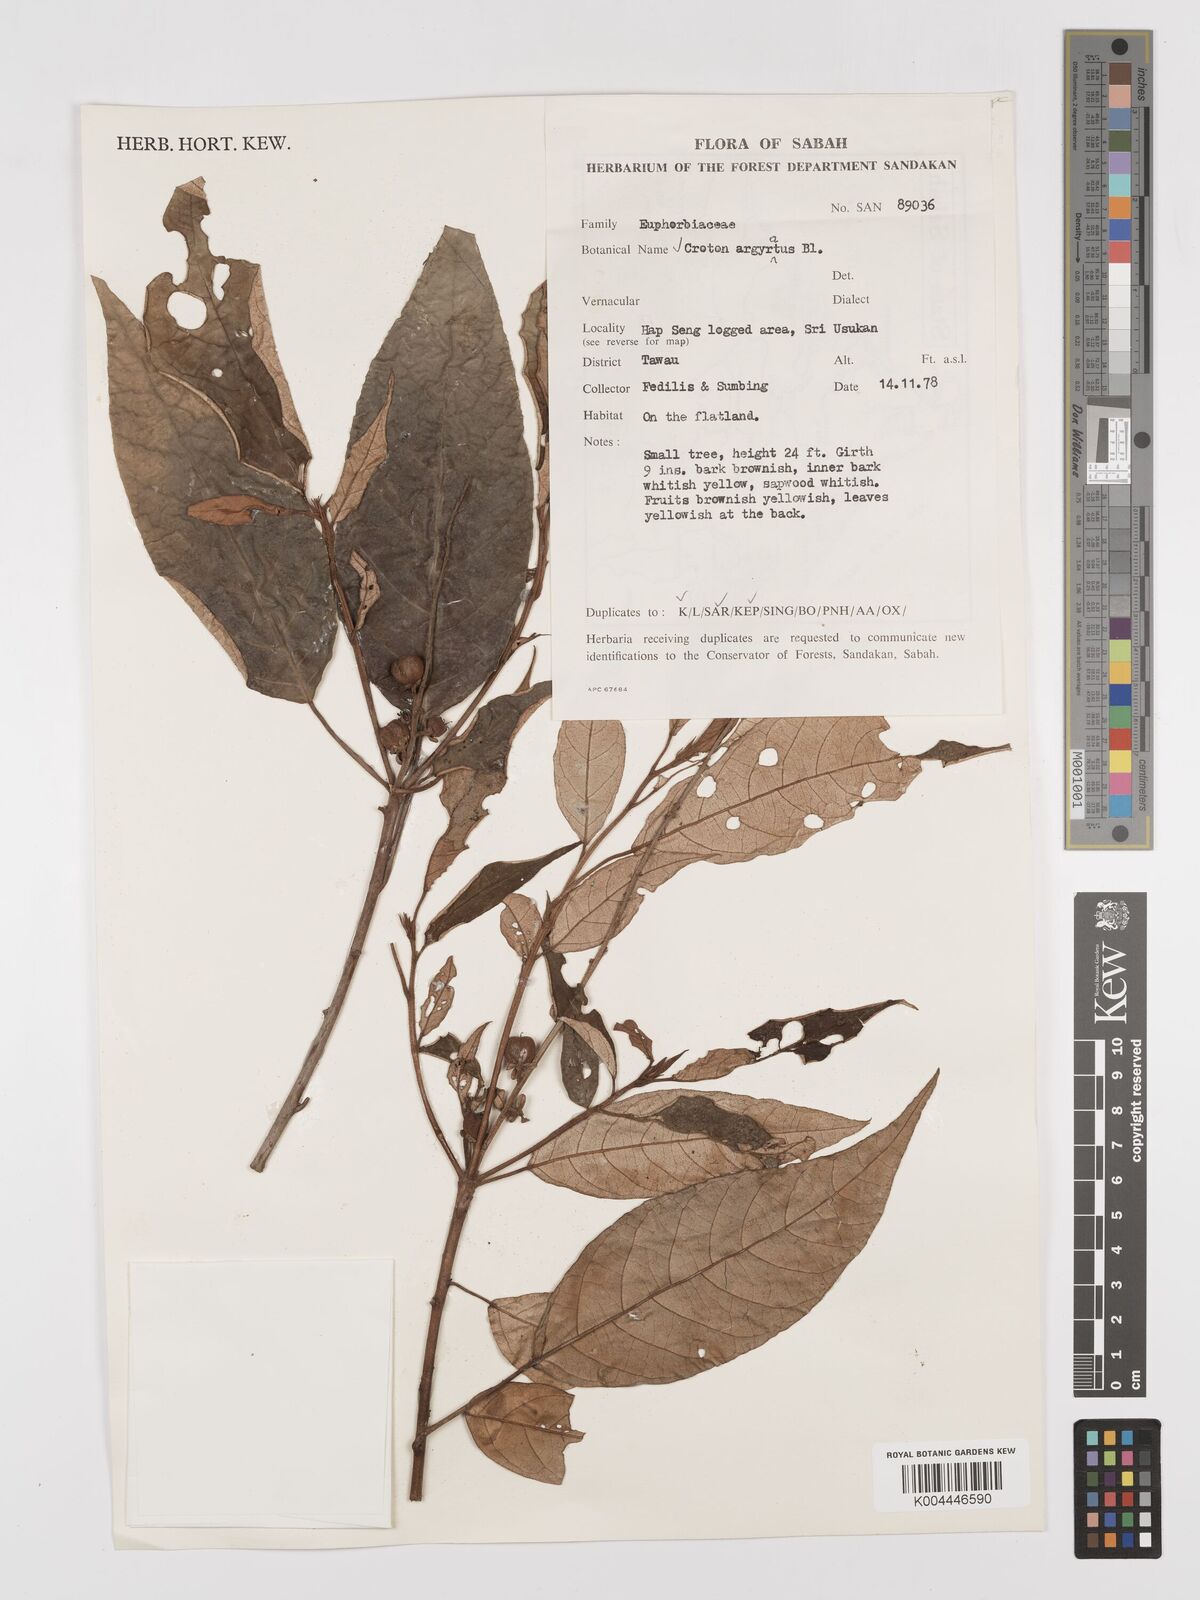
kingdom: Plantae
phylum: Tracheophyta
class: Magnoliopsida
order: Malpighiales
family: Euphorbiaceae
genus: Croton
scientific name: Croton argyratus
